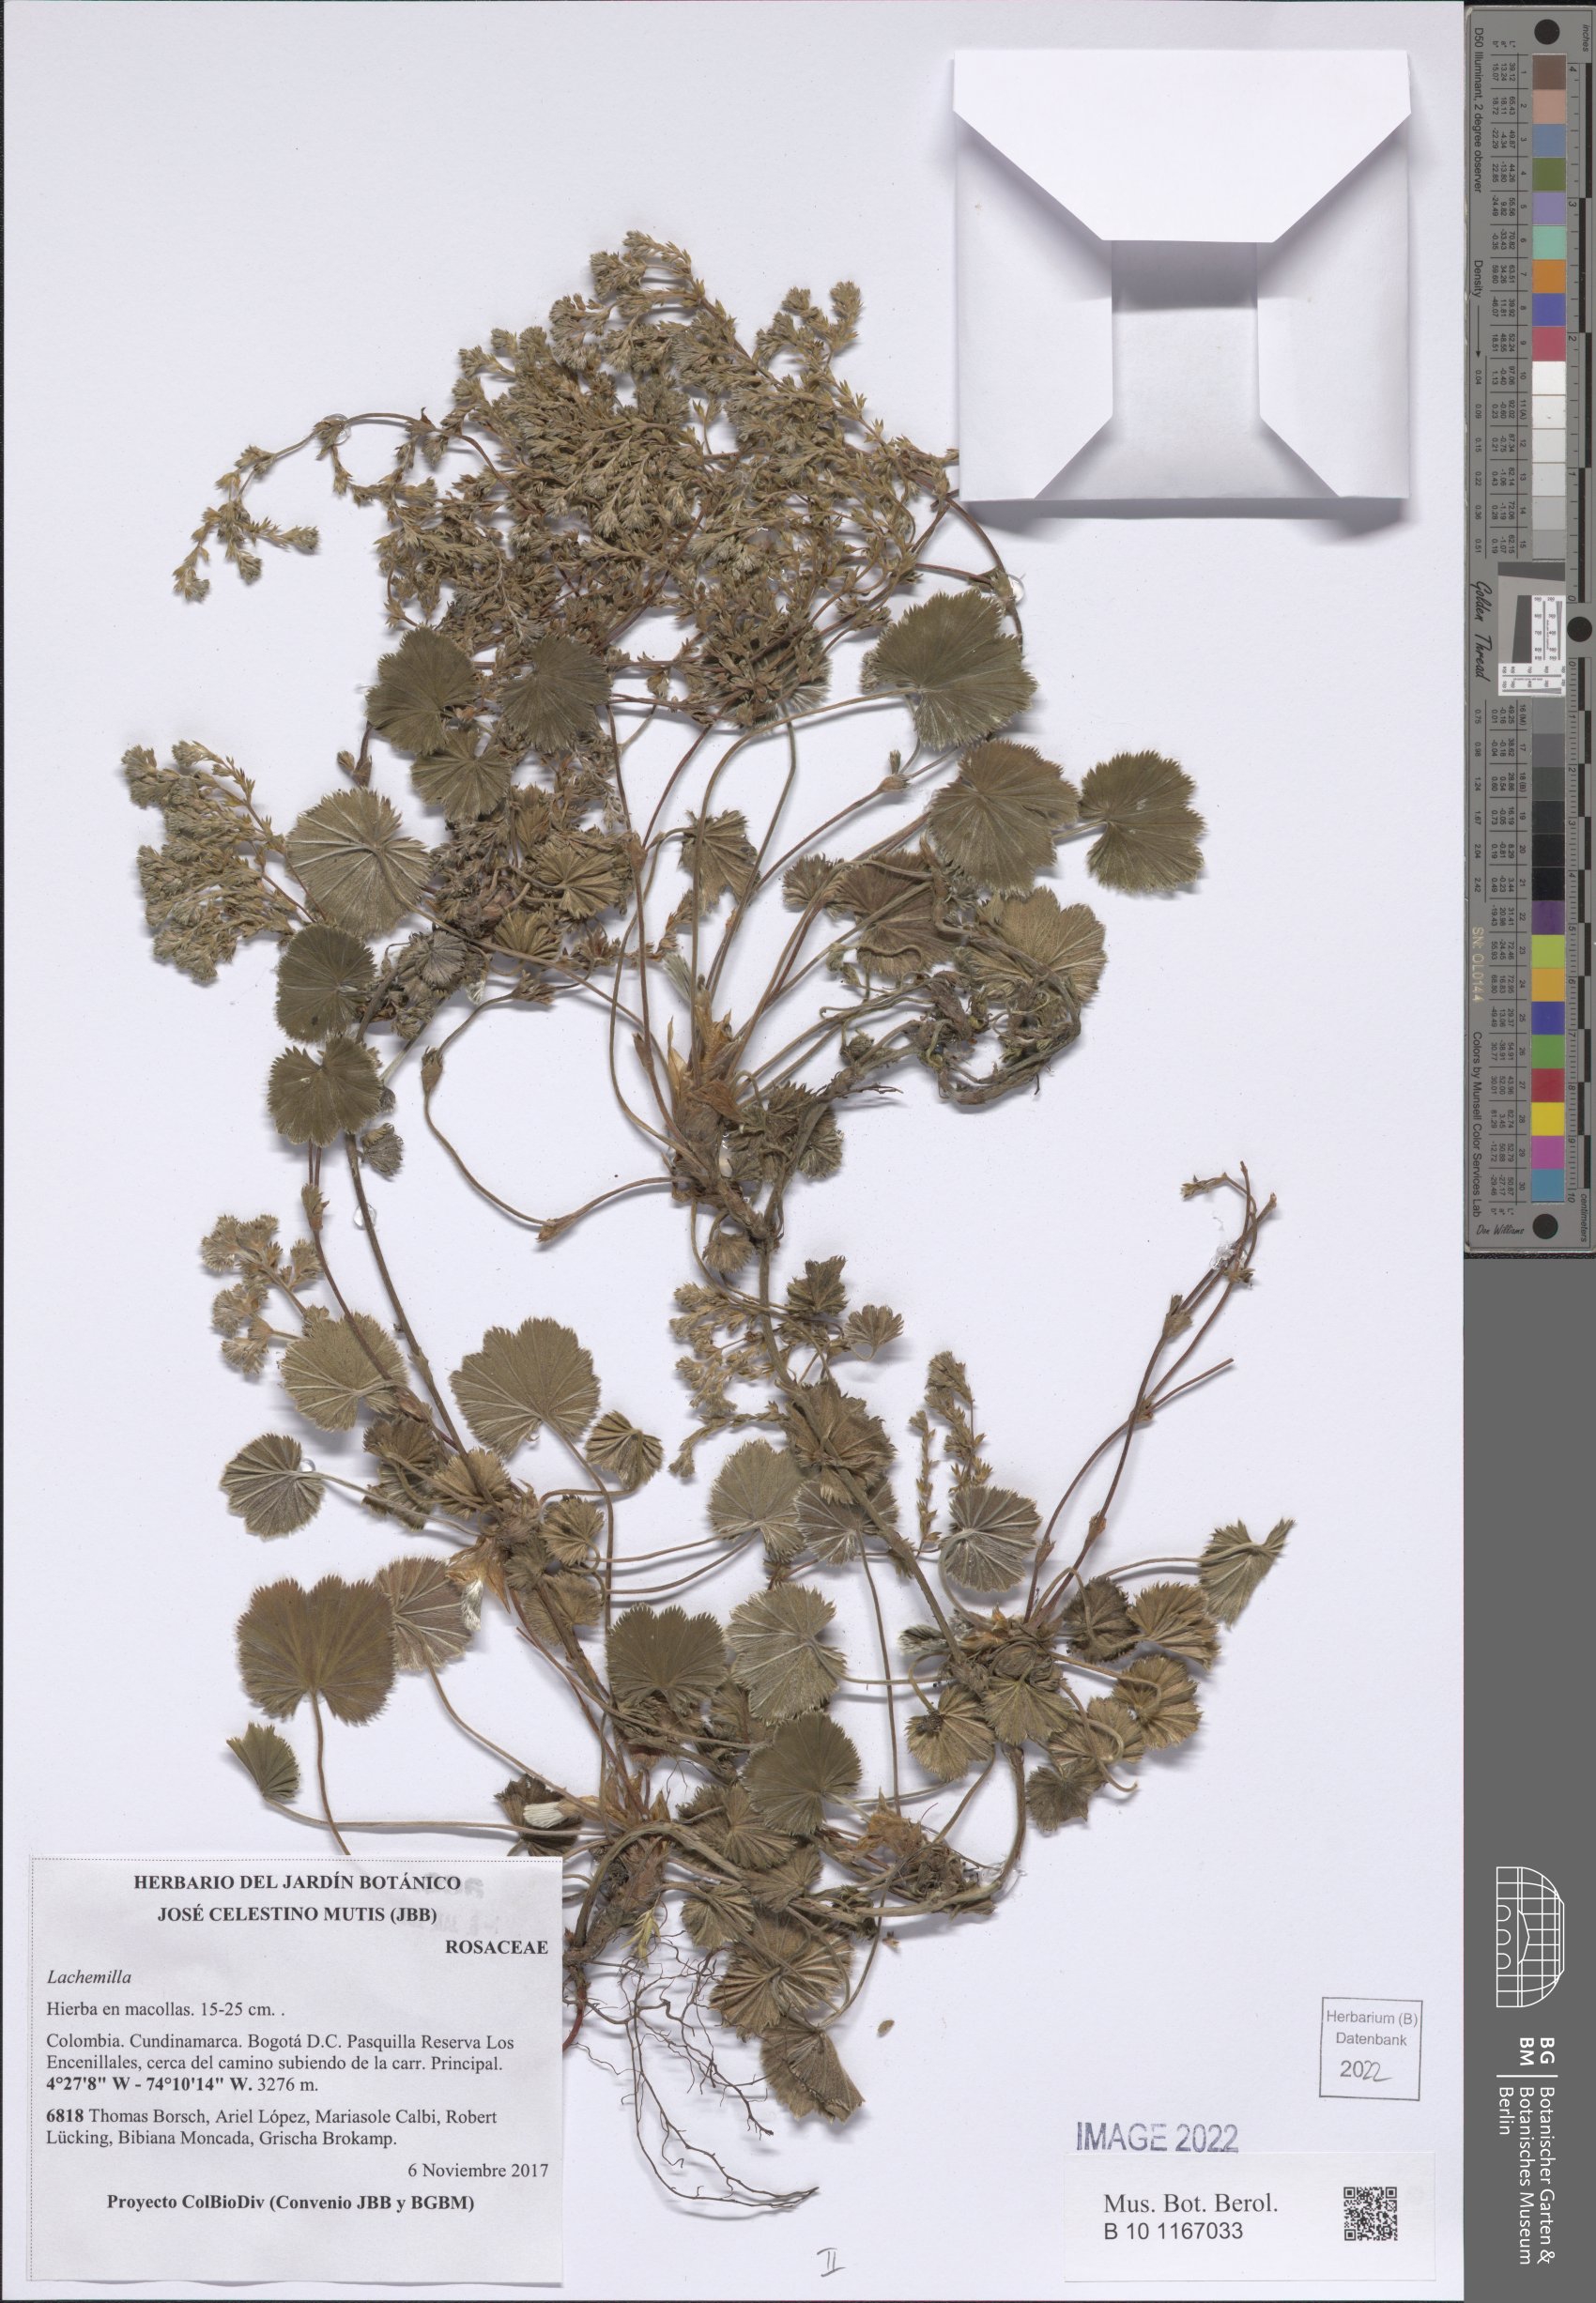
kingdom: Plantae
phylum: Tracheophyta
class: Magnoliopsida
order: Rosales
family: Rosaceae
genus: Lachemilla
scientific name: Lachemilla
